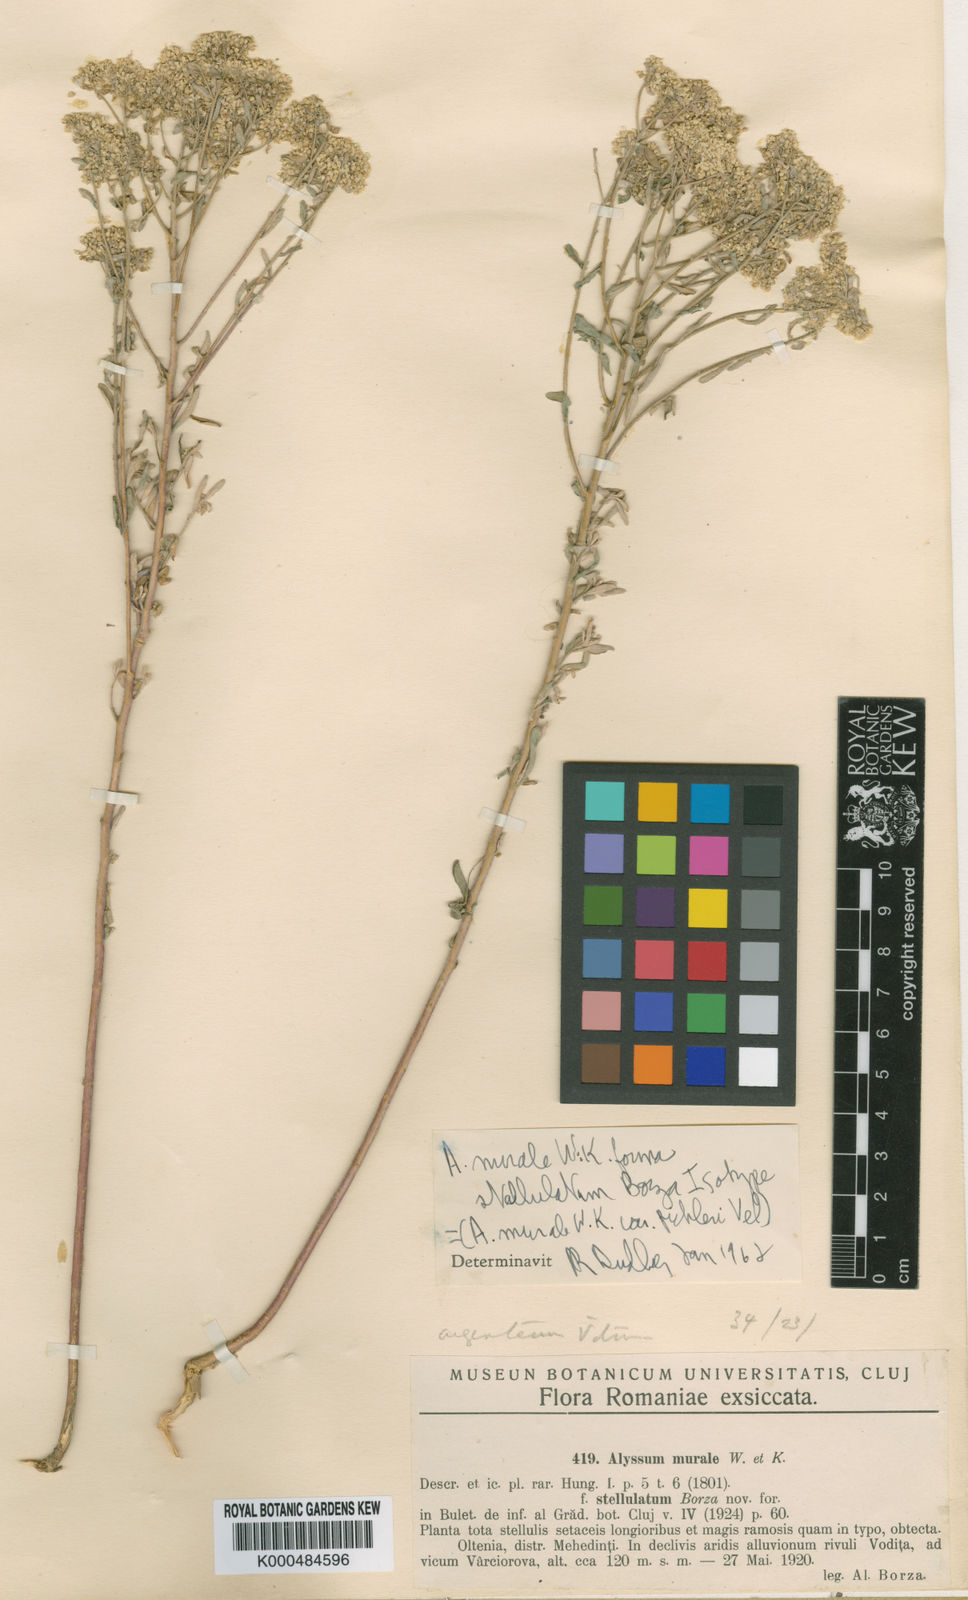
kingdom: Plantae
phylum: Tracheophyta
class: Magnoliopsida
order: Brassicales
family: Brassicaceae
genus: Odontarrhena
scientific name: Odontarrhena muralis
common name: Rock alyssum
